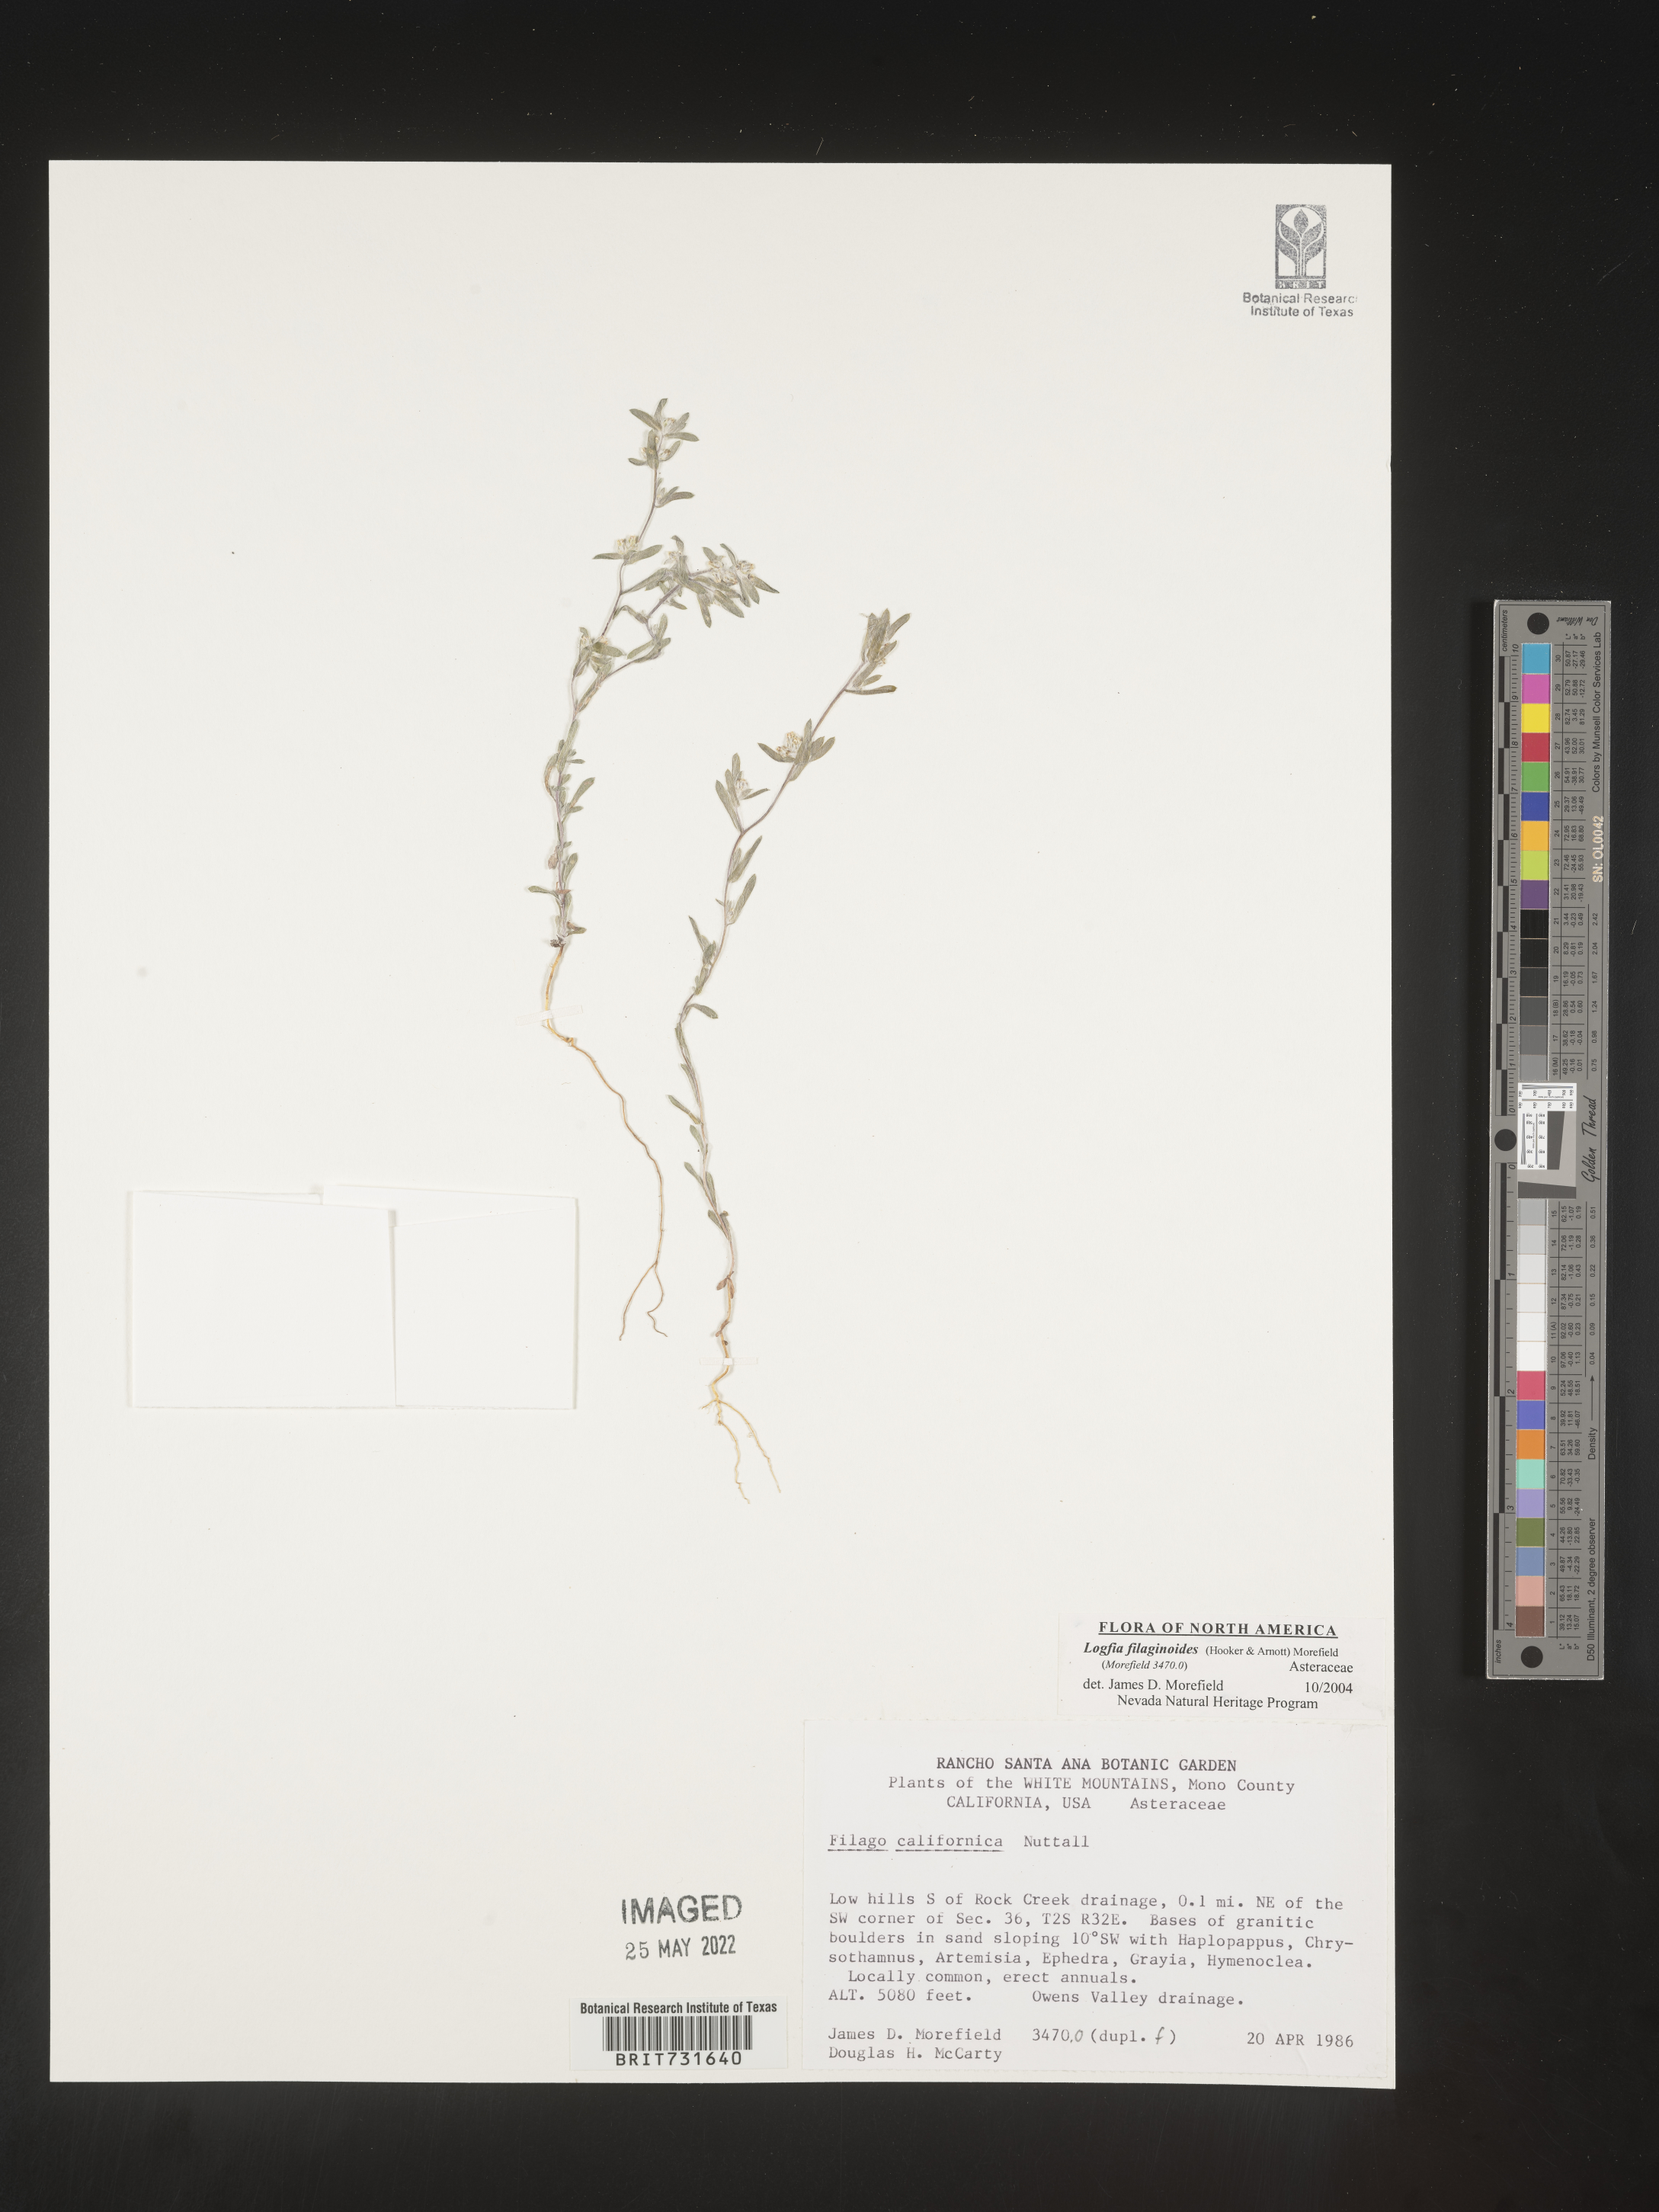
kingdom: Plantae
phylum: Tracheophyta
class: Magnoliopsida
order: Asterales
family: Asteraceae
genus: Logfia
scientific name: Logfia
